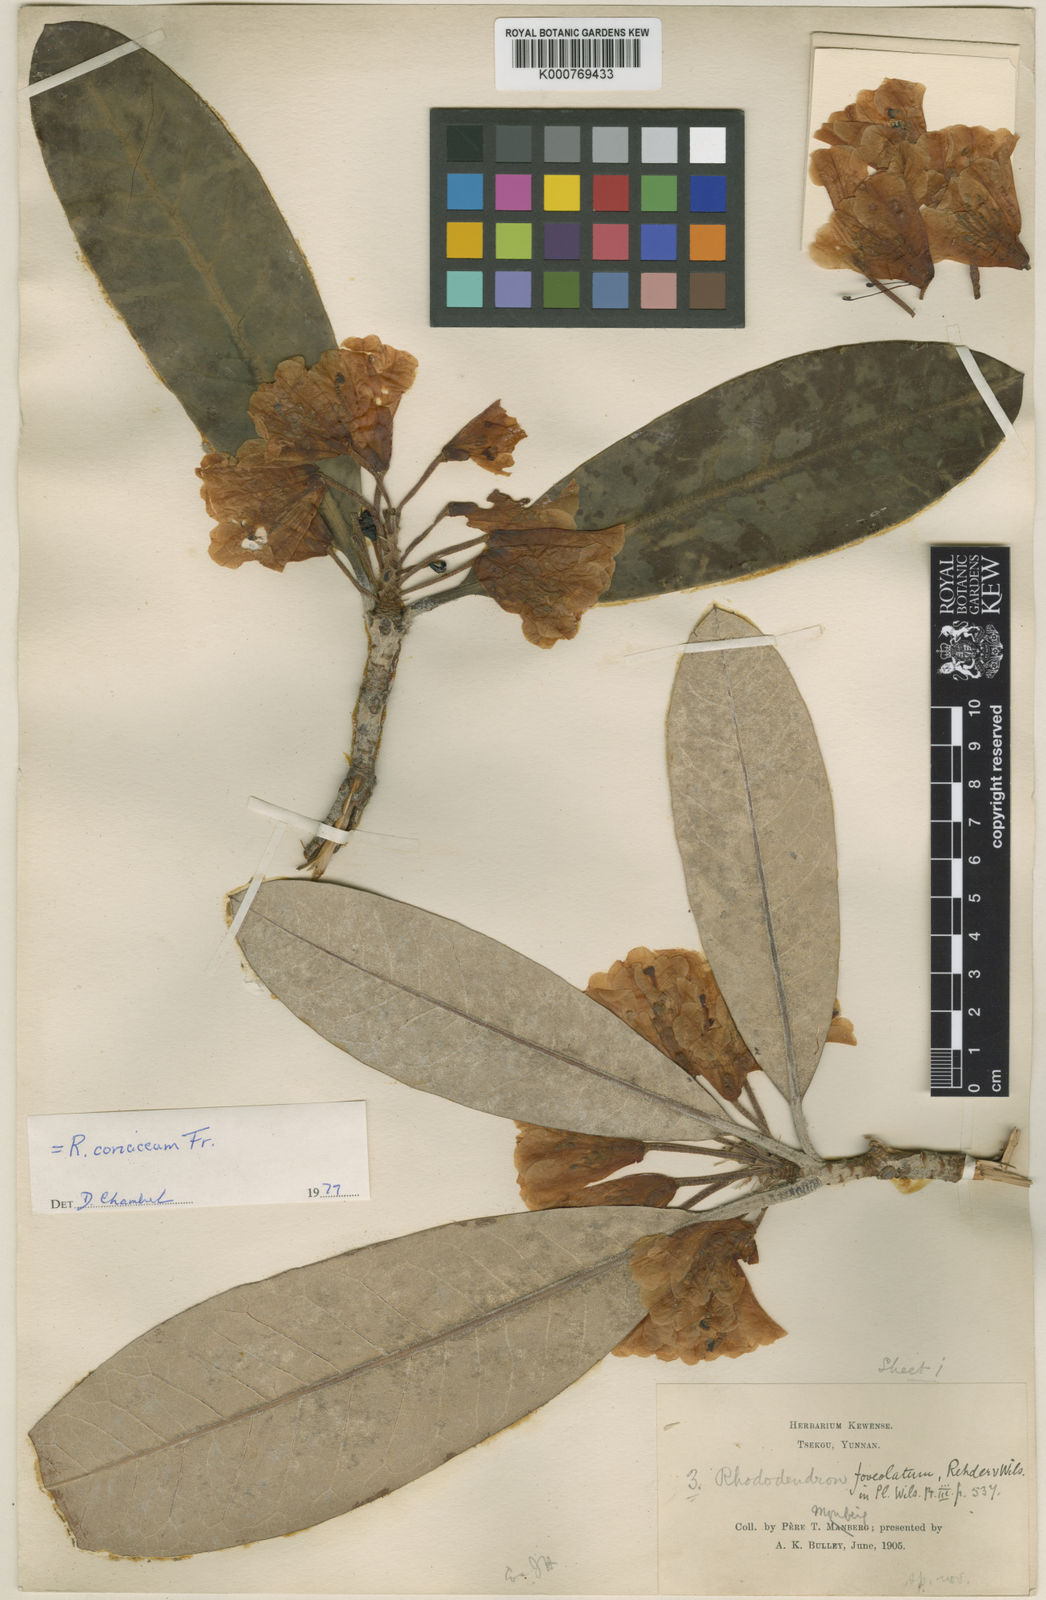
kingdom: Plantae
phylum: Tracheophyta
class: Magnoliopsida
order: Ericales
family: Ericaceae
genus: Rhododendron
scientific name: Rhododendron coriaceum
